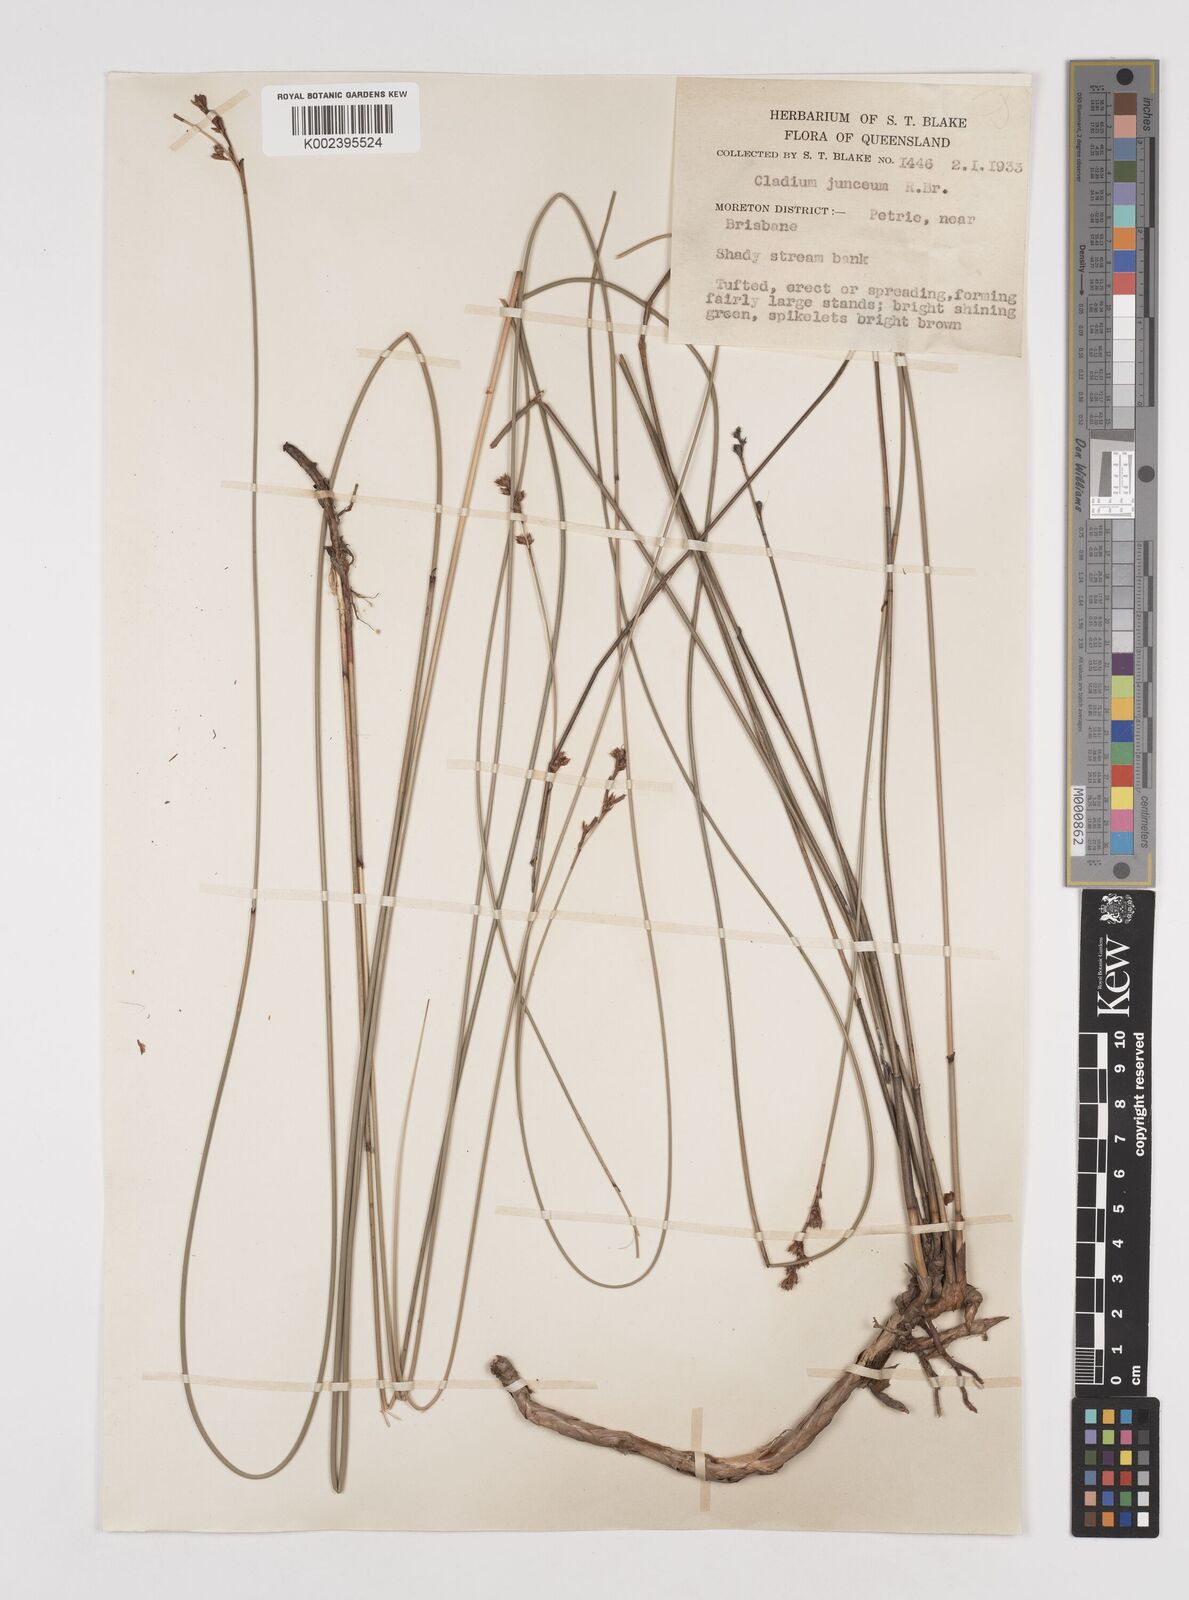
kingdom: Plantae
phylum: Tracheophyta
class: Liliopsida
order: Poales
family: Cyperaceae
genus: Machaerina
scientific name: Machaerina juncea
